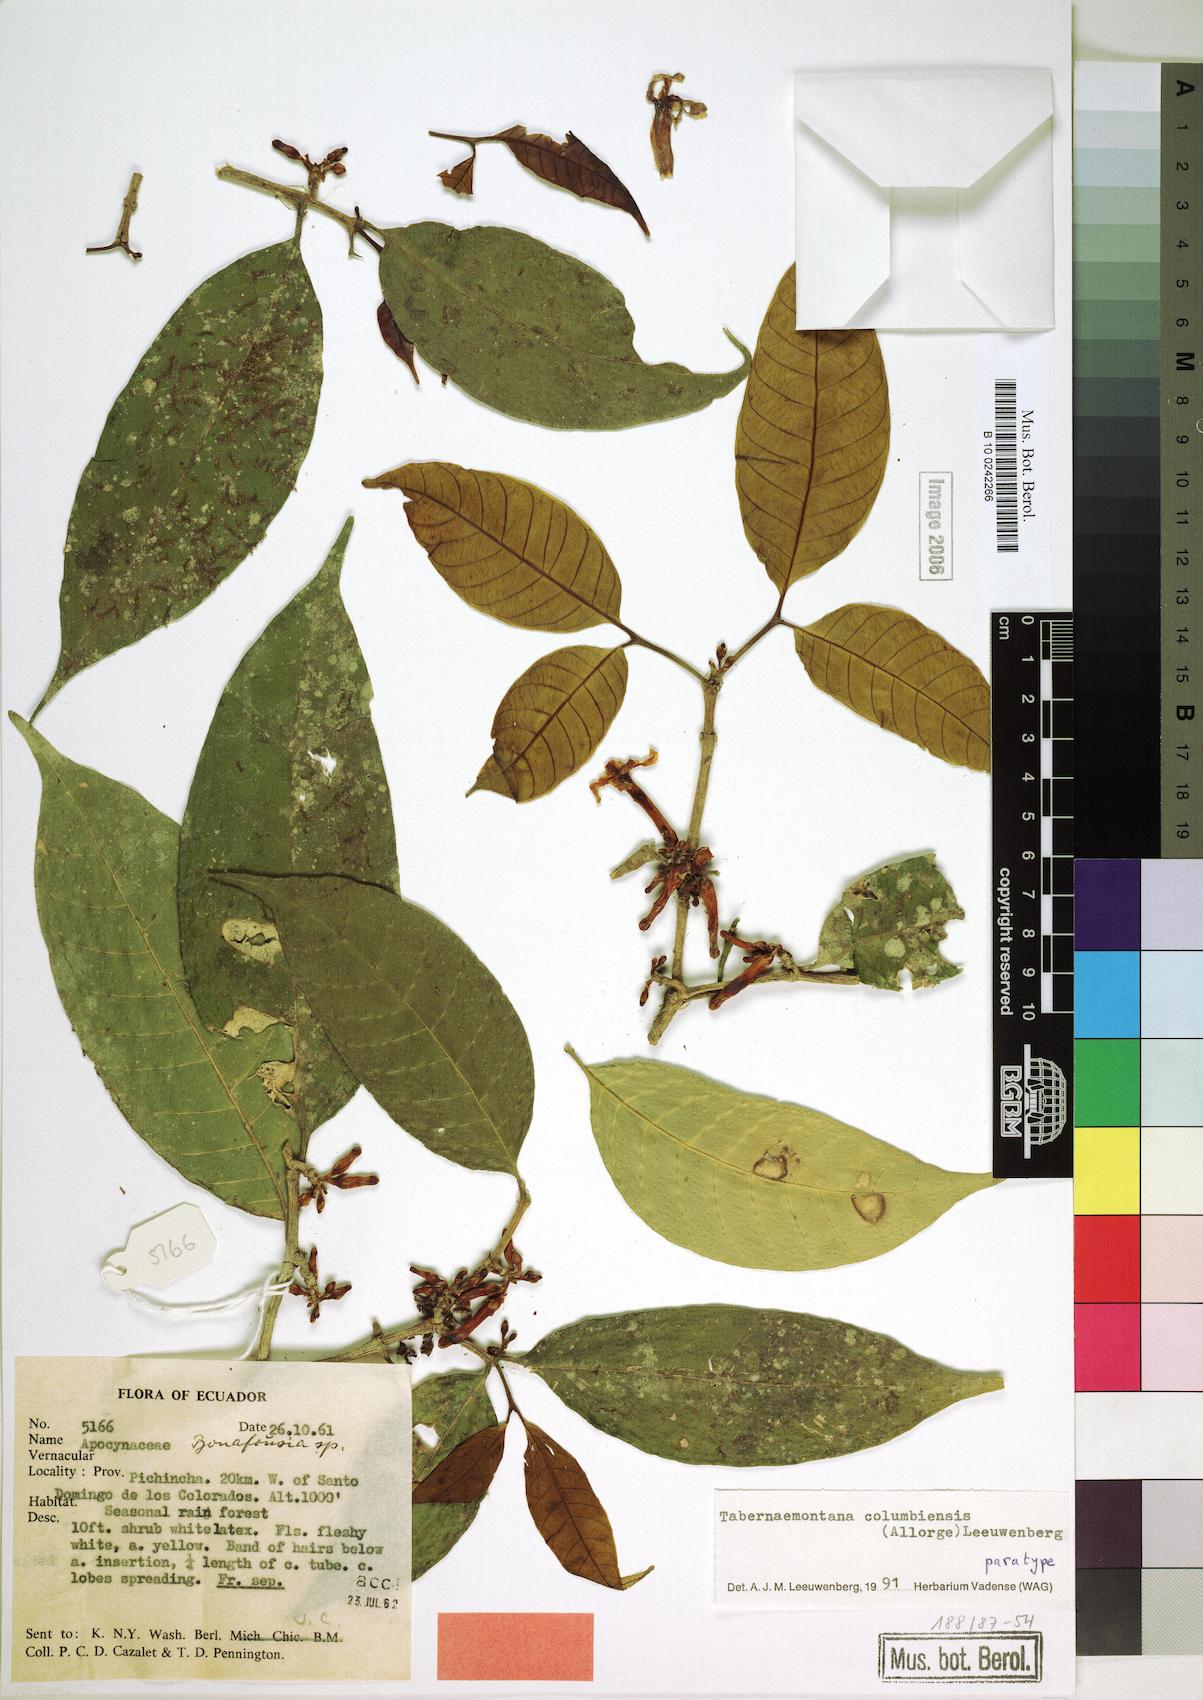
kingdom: Plantae
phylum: Tracheophyta
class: Magnoliopsida
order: Gentianales
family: Apocynaceae
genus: Tabernaemontana
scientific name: Tabernaemontana columbiensis
